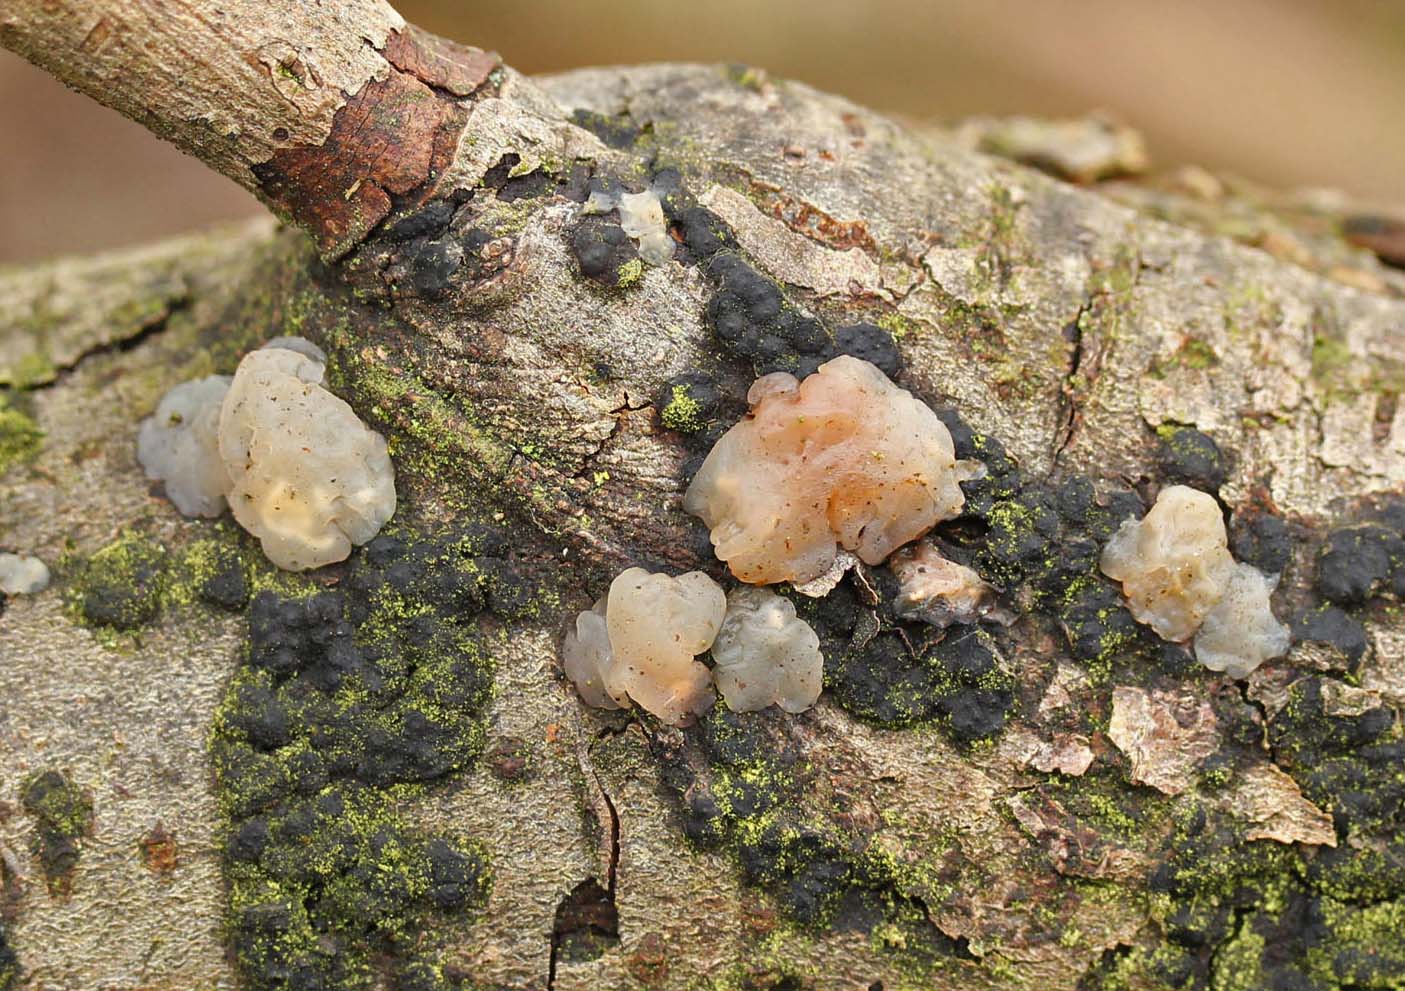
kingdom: Fungi
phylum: Basidiomycota
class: Agaricomycetes
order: Auriculariales
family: Hyaloriaceae
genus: Myxarium
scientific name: Myxarium nucleatum
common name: klar bævretop
